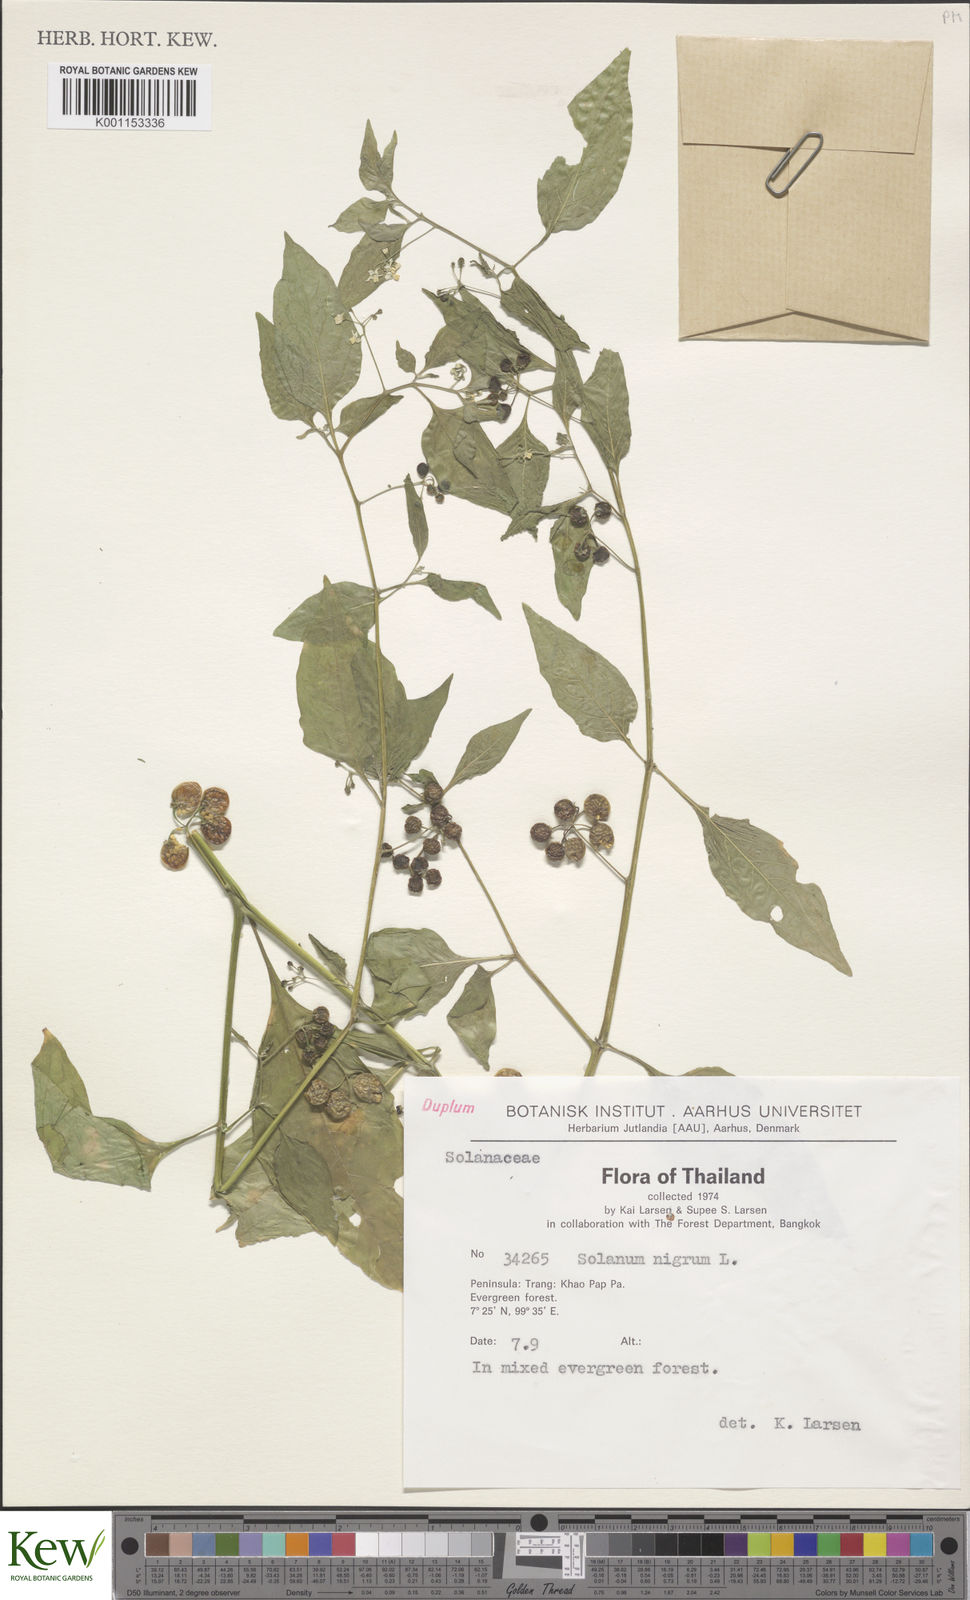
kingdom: Plantae
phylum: Tracheophyta
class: Magnoliopsida
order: Solanales
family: Solanaceae
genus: Solanum
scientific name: Solanum americanum
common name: American black nightshade
